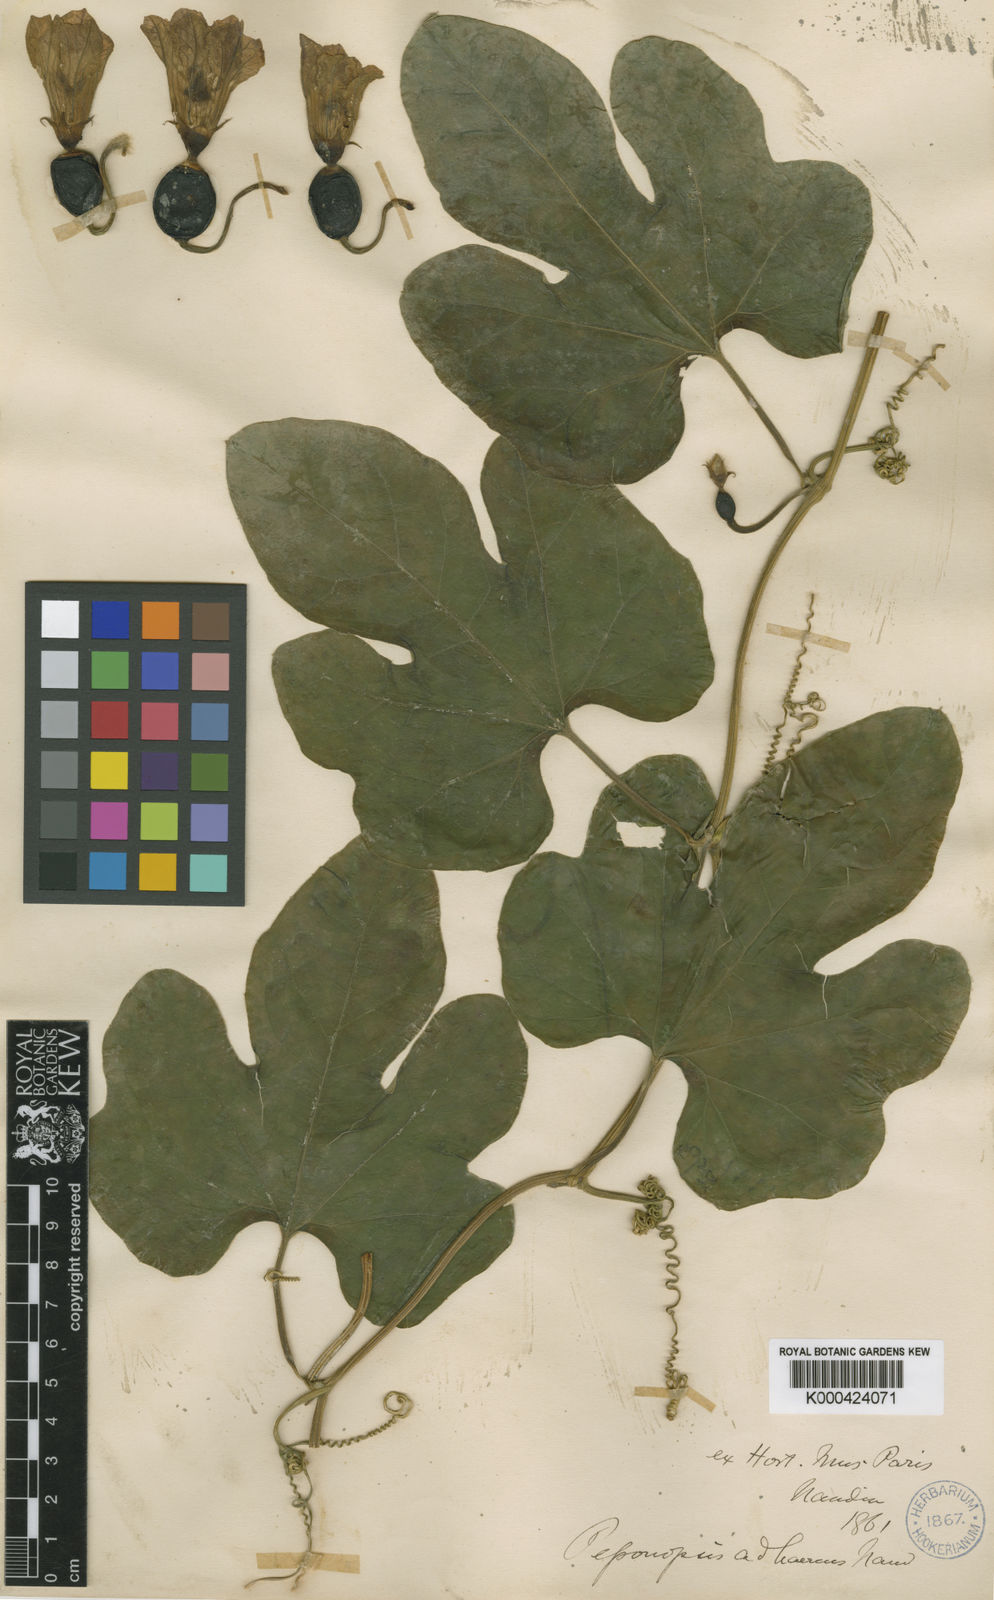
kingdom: Plantae
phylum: Tracheophyta
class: Magnoliopsida
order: Cucurbitales
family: Cucurbitaceae
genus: Peponopsis
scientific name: Peponopsis adhaerens
